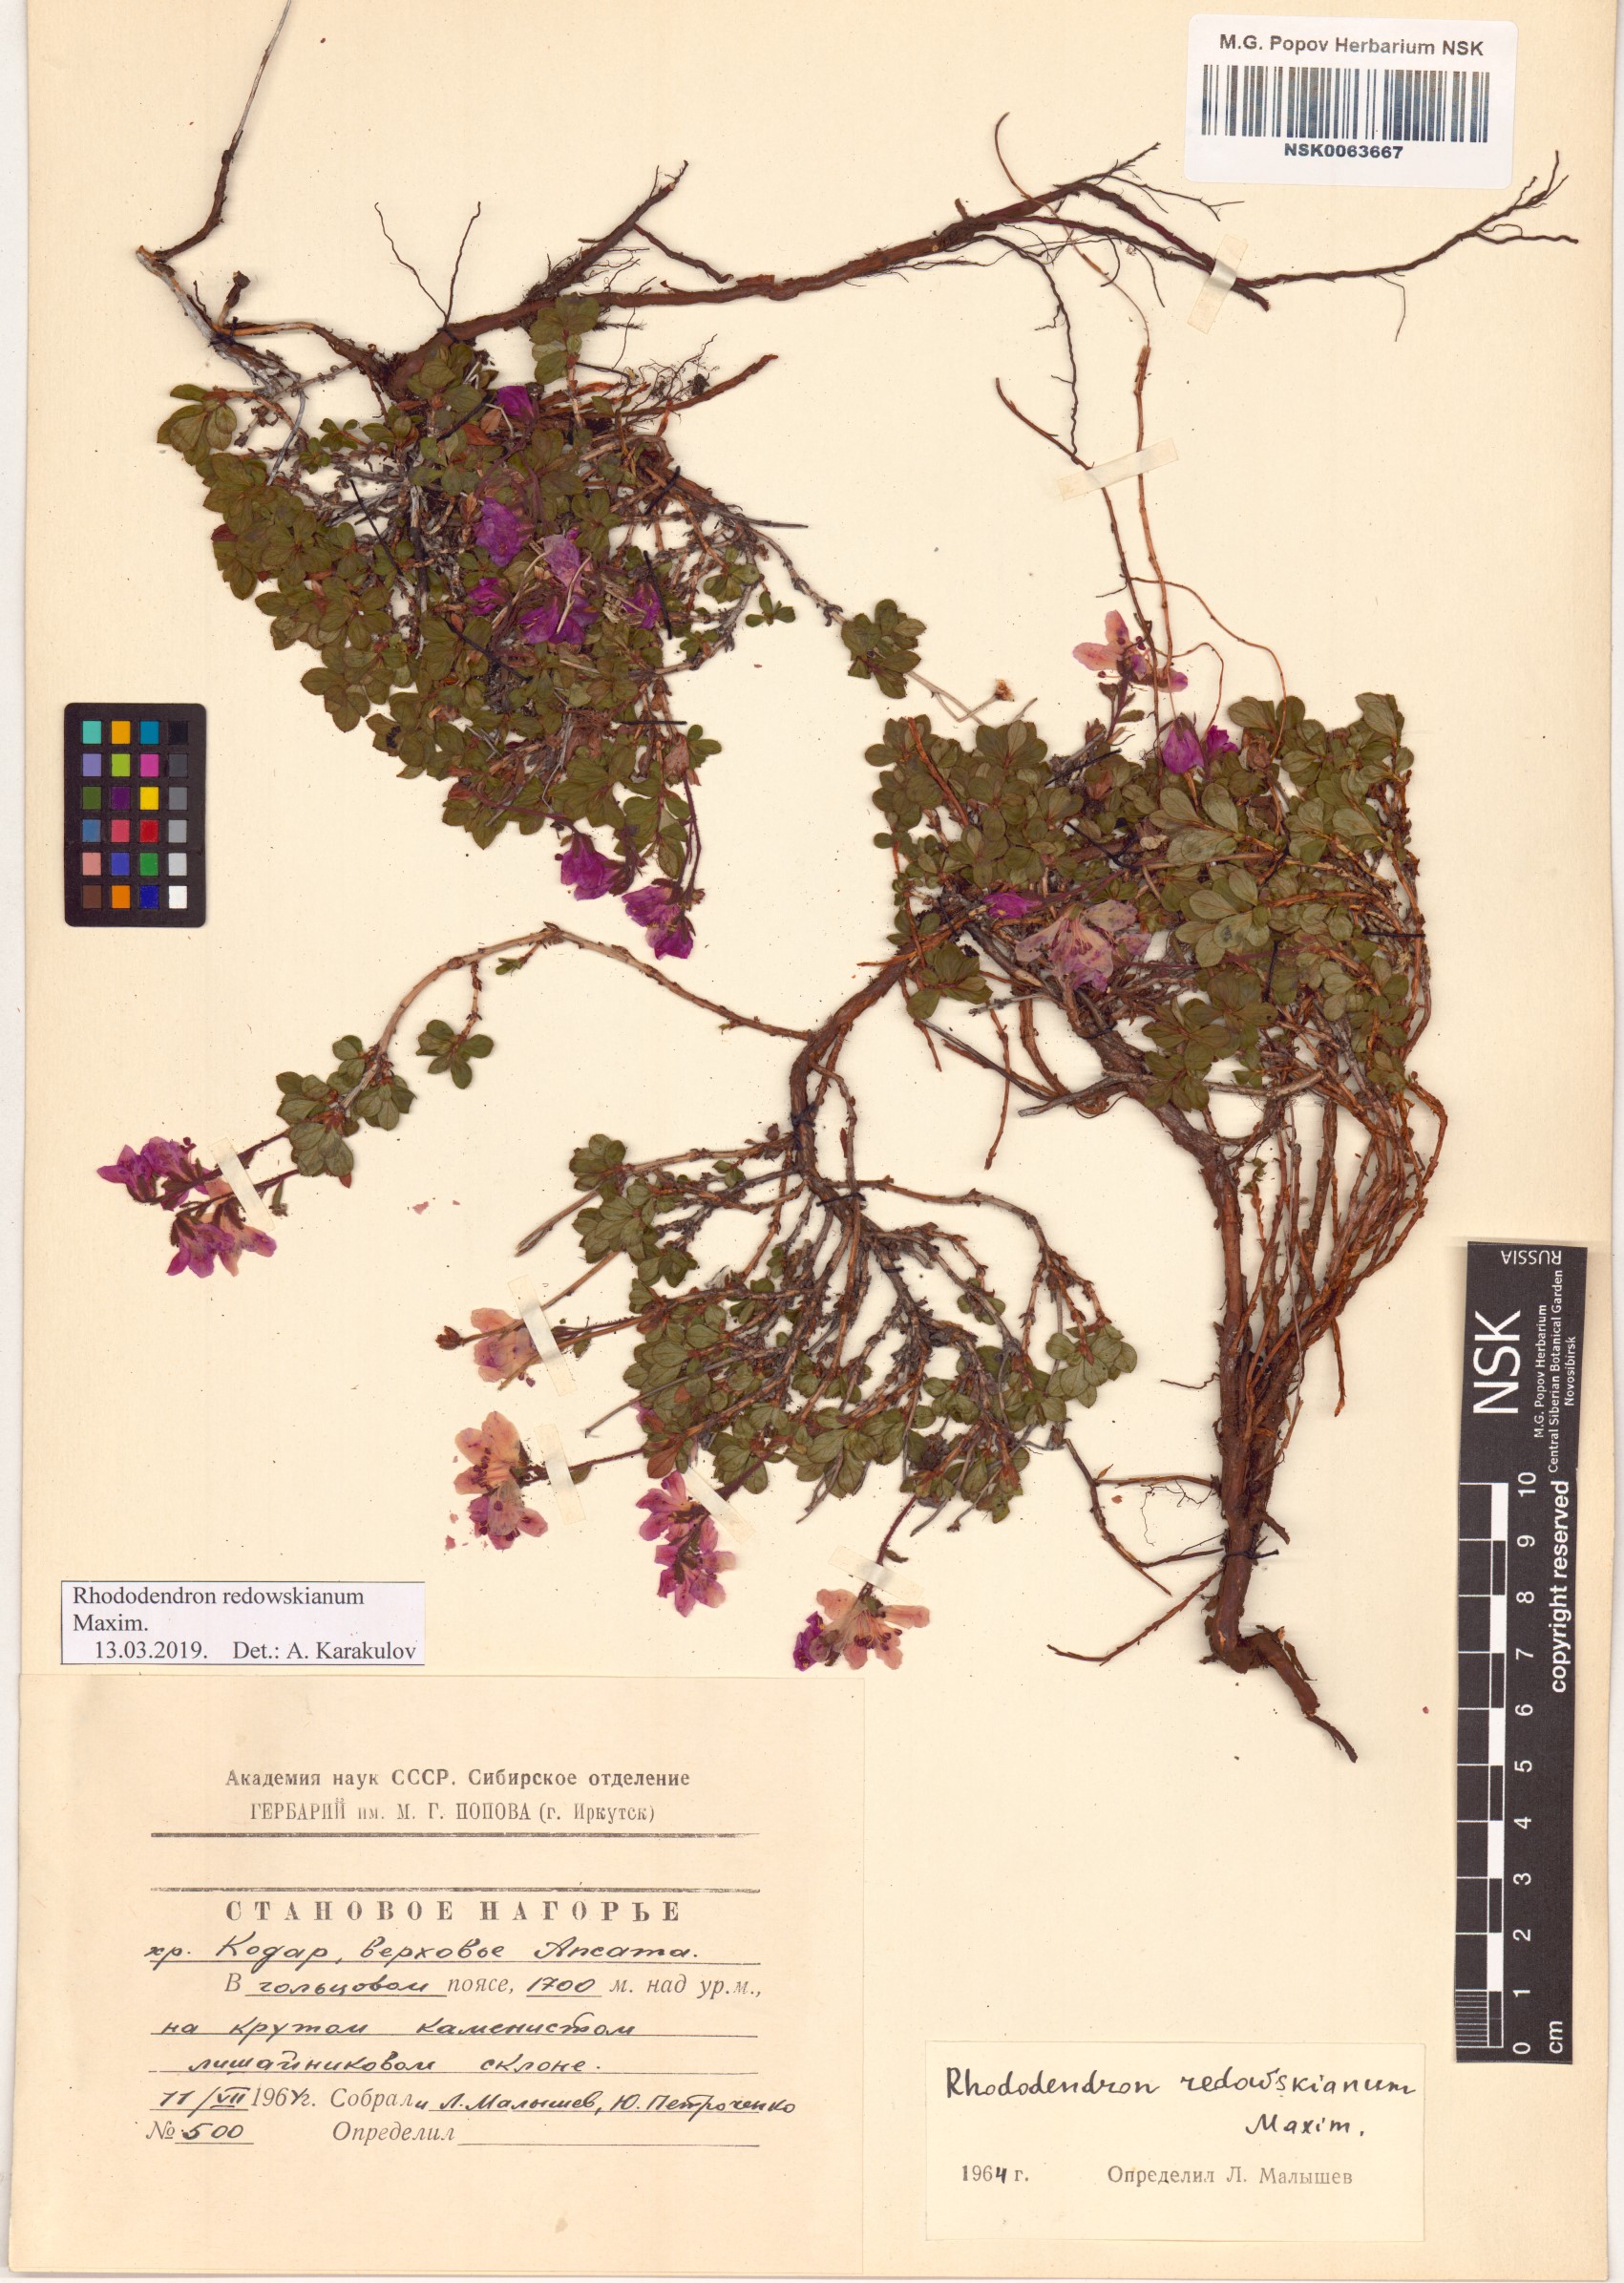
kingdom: Plantae
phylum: Tracheophyta
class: Magnoliopsida
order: Ericales
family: Ericaceae
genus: Rhododendron
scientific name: Rhododendron redowskianum
